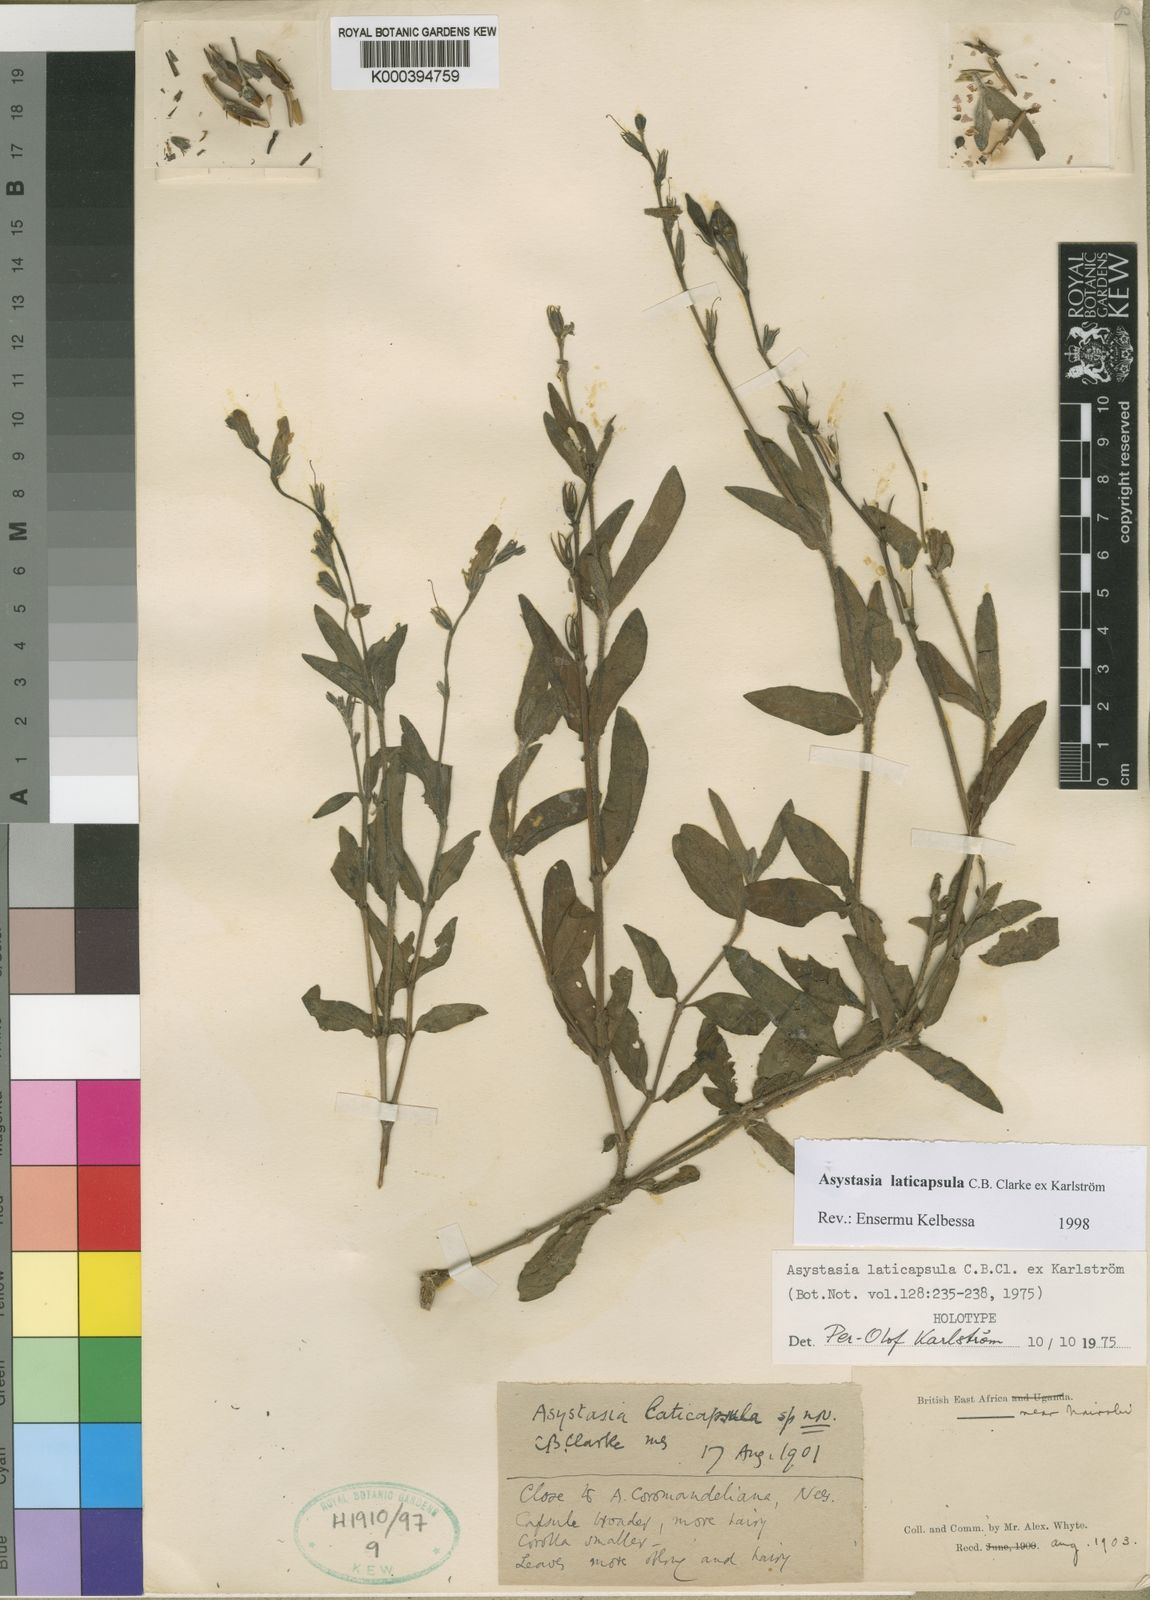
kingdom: Plantae
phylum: Tracheophyta
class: Magnoliopsida
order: Lamiales
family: Acanthaceae
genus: Asystasia
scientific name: Asystasia
